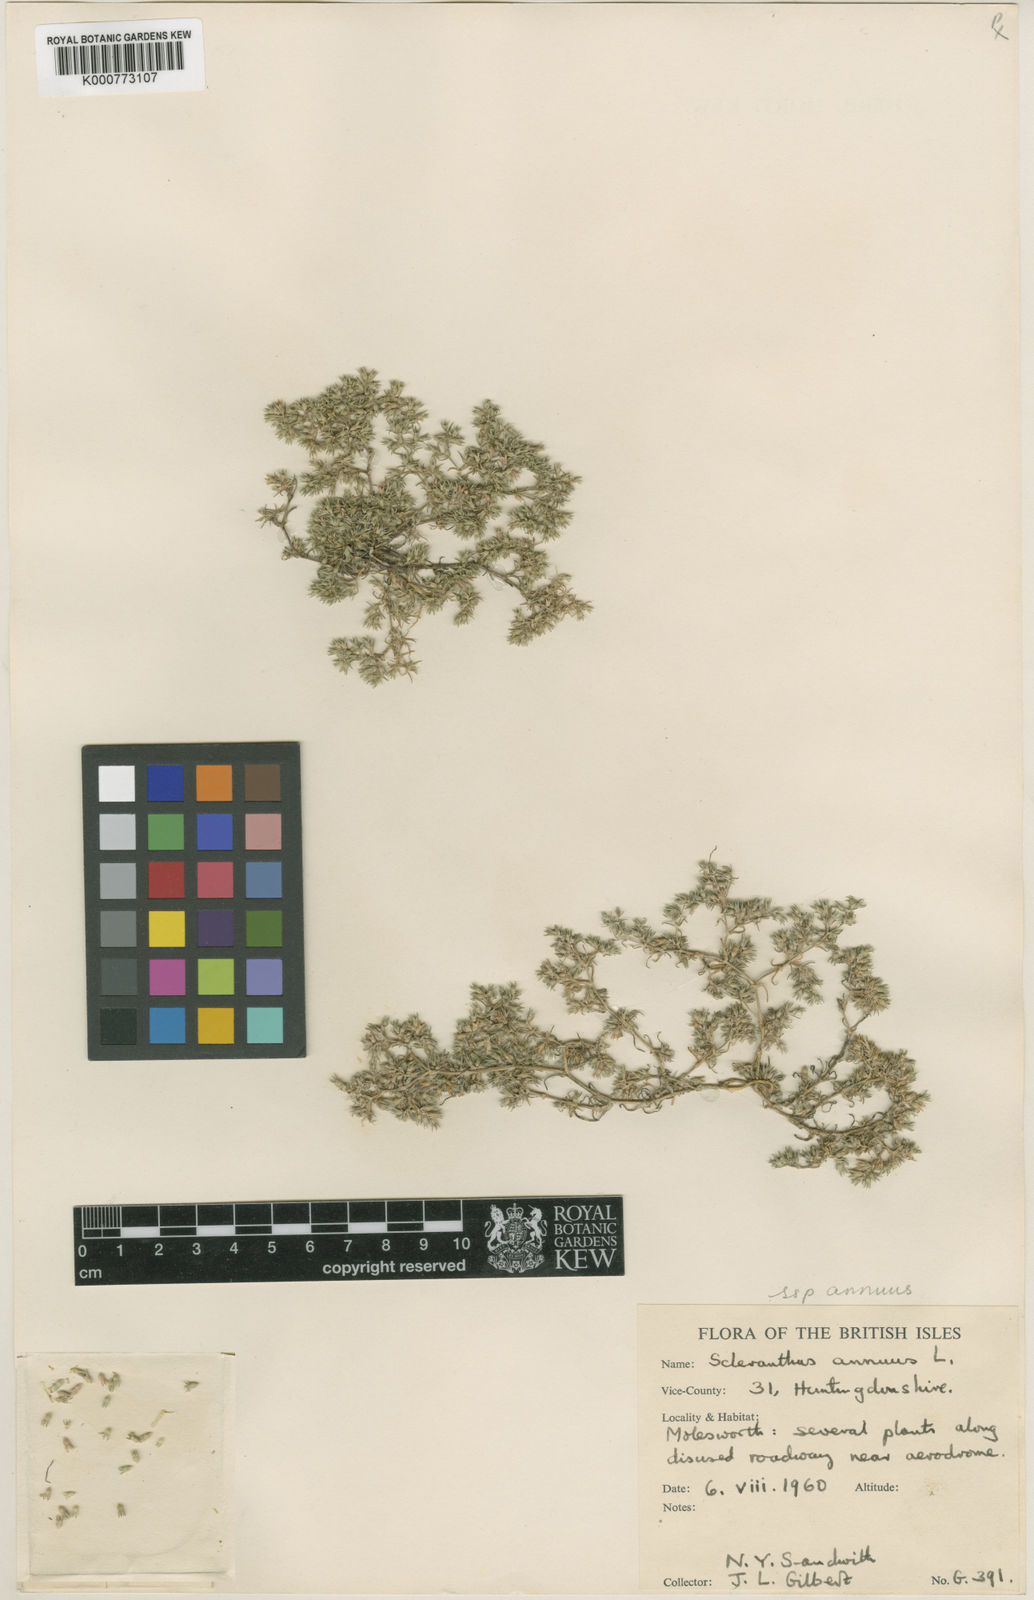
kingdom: Plantae
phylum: Tracheophyta
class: Magnoliopsida
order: Caryophyllales
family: Caryophyllaceae
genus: Scleranthus
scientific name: Scleranthus annuus
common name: Annual knawel
